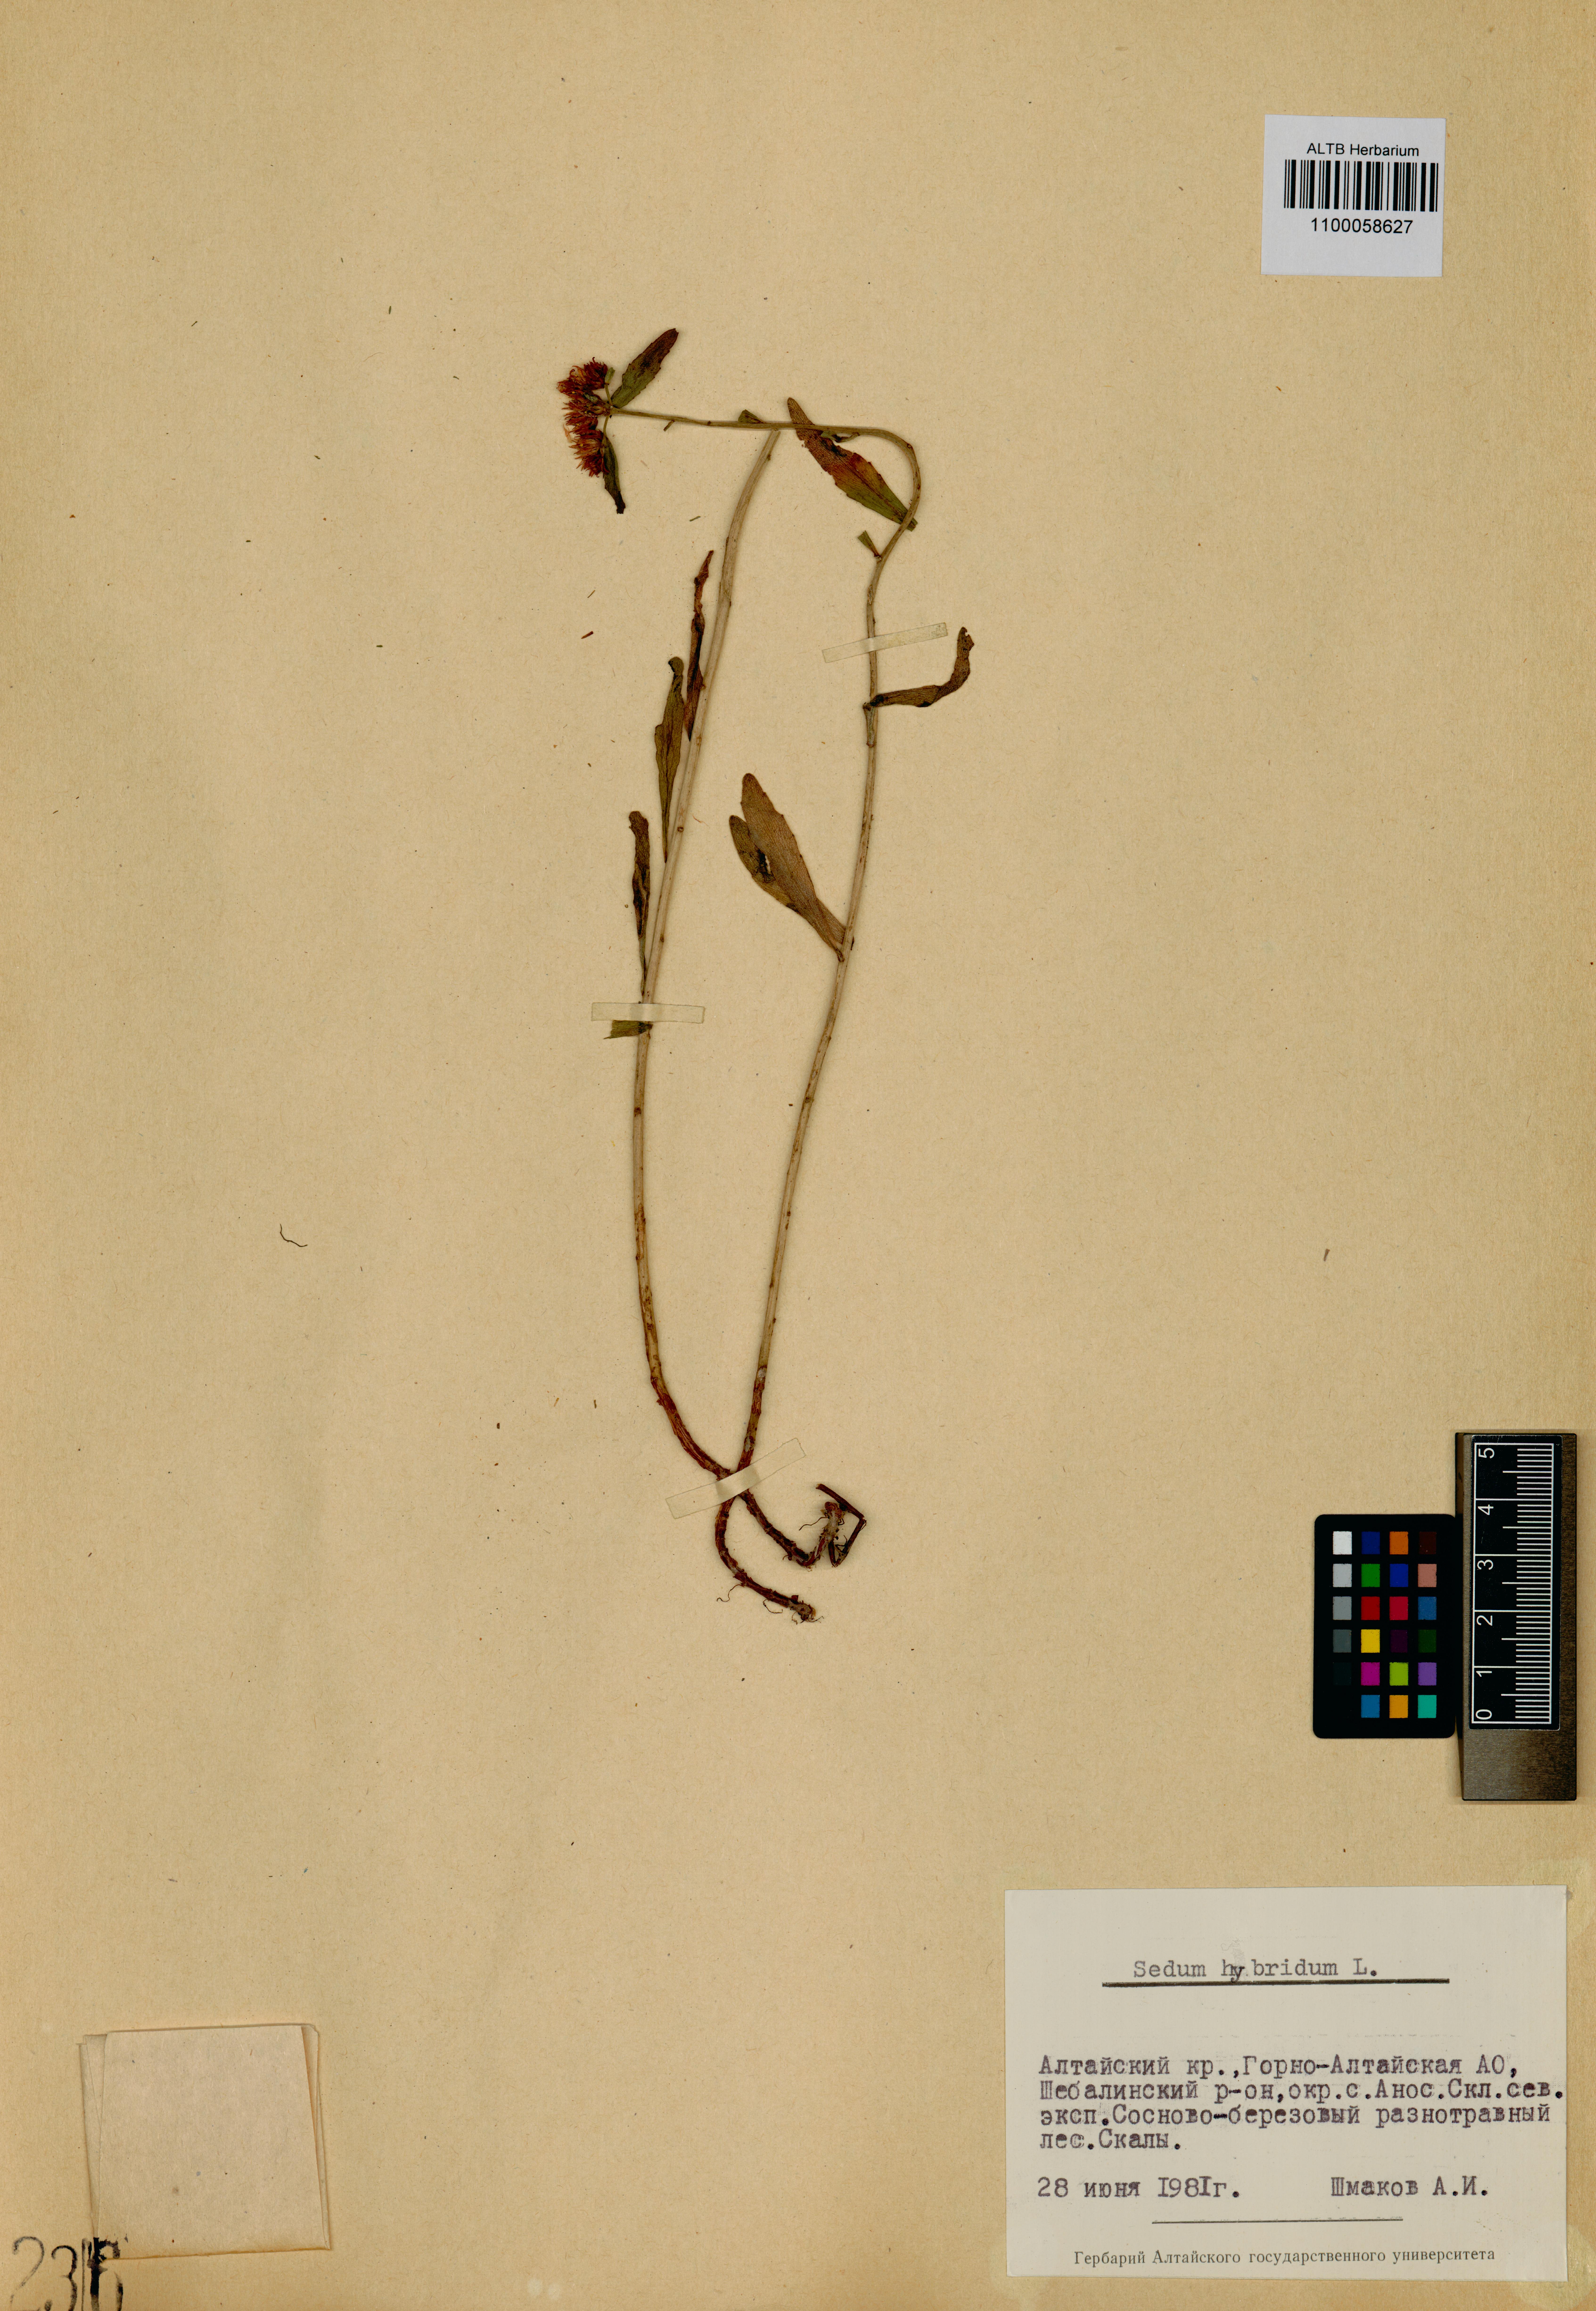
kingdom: Plantae
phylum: Tracheophyta
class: Magnoliopsida
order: Saxifragales
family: Crassulaceae
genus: Phedimus
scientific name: Phedimus hybridus
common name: Hybrid stonecrop
